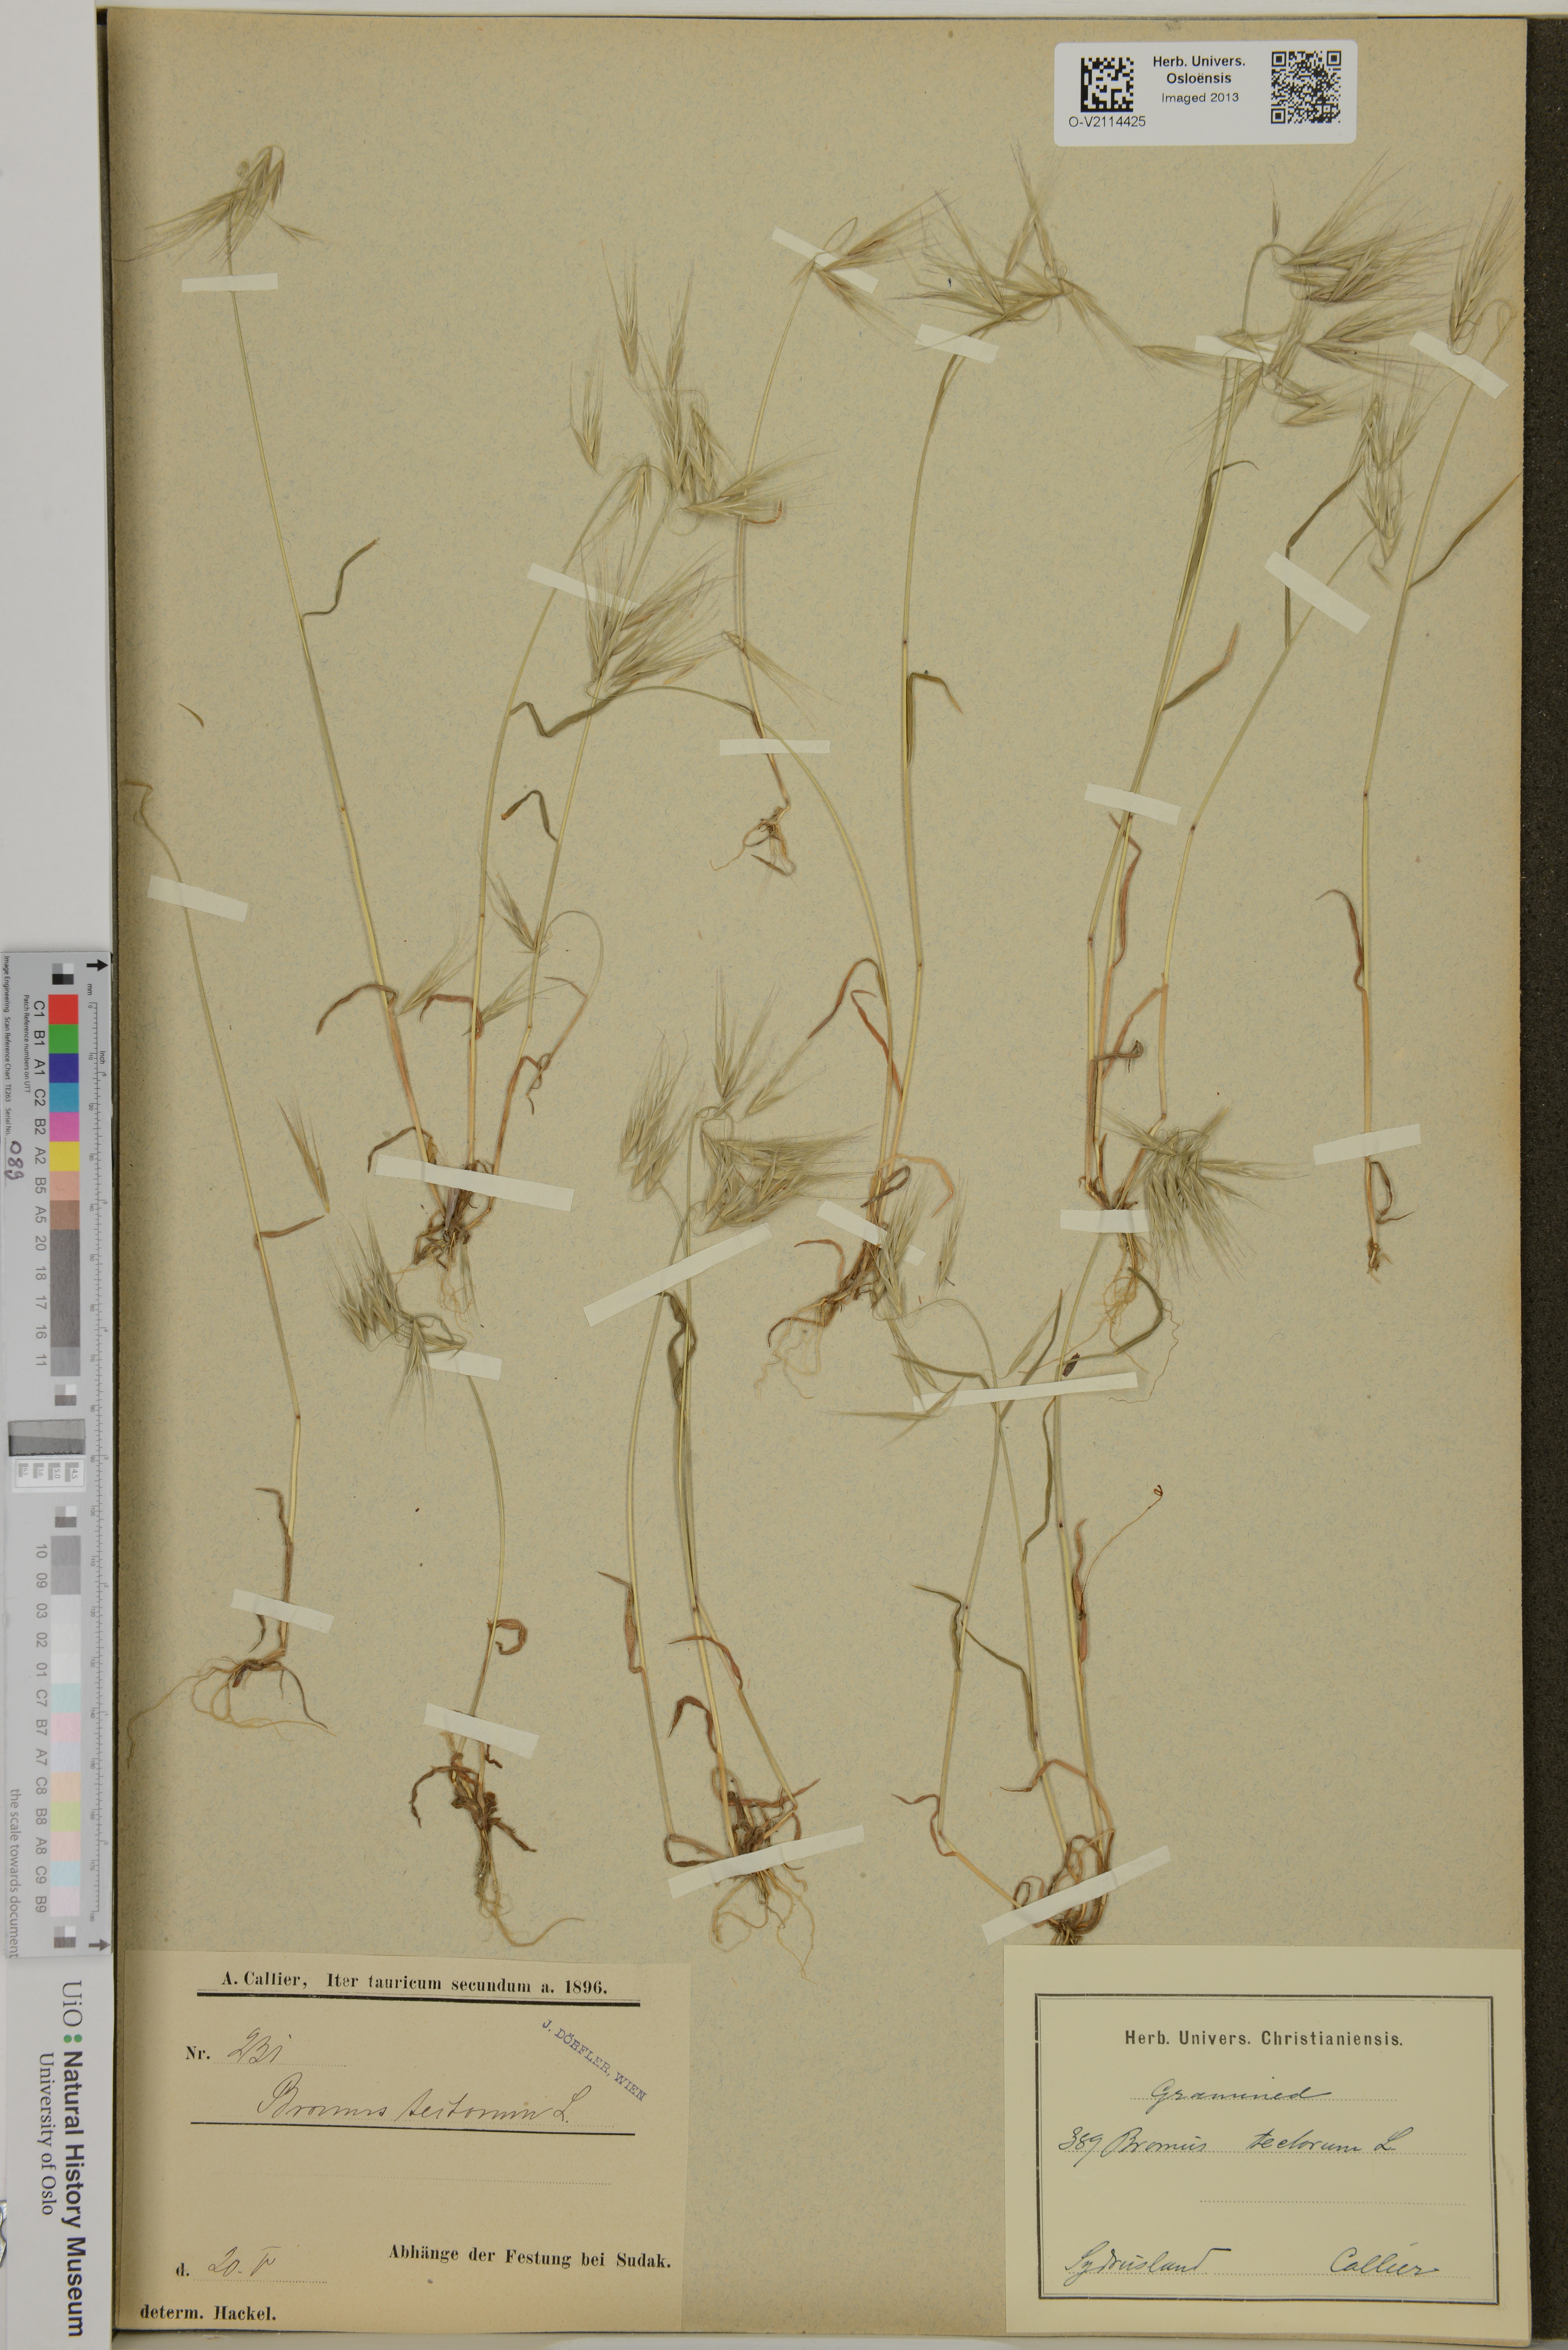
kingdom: Plantae
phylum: Tracheophyta
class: Liliopsida
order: Poales
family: Poaceae
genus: Bromus
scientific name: Bromus tectorum
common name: Cheatgrass
